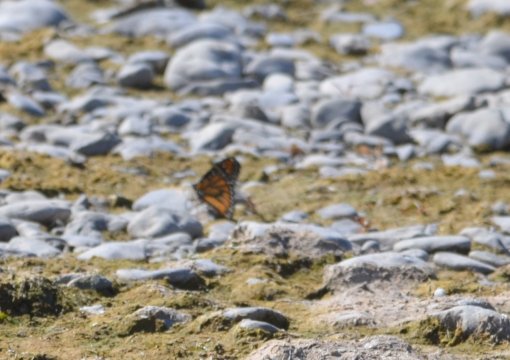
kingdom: Animalia
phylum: Arthropoda
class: Insecta
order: Lepidoptera
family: Nymphalidae
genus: Danaus
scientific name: Danaus plexippus
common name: Monarch
